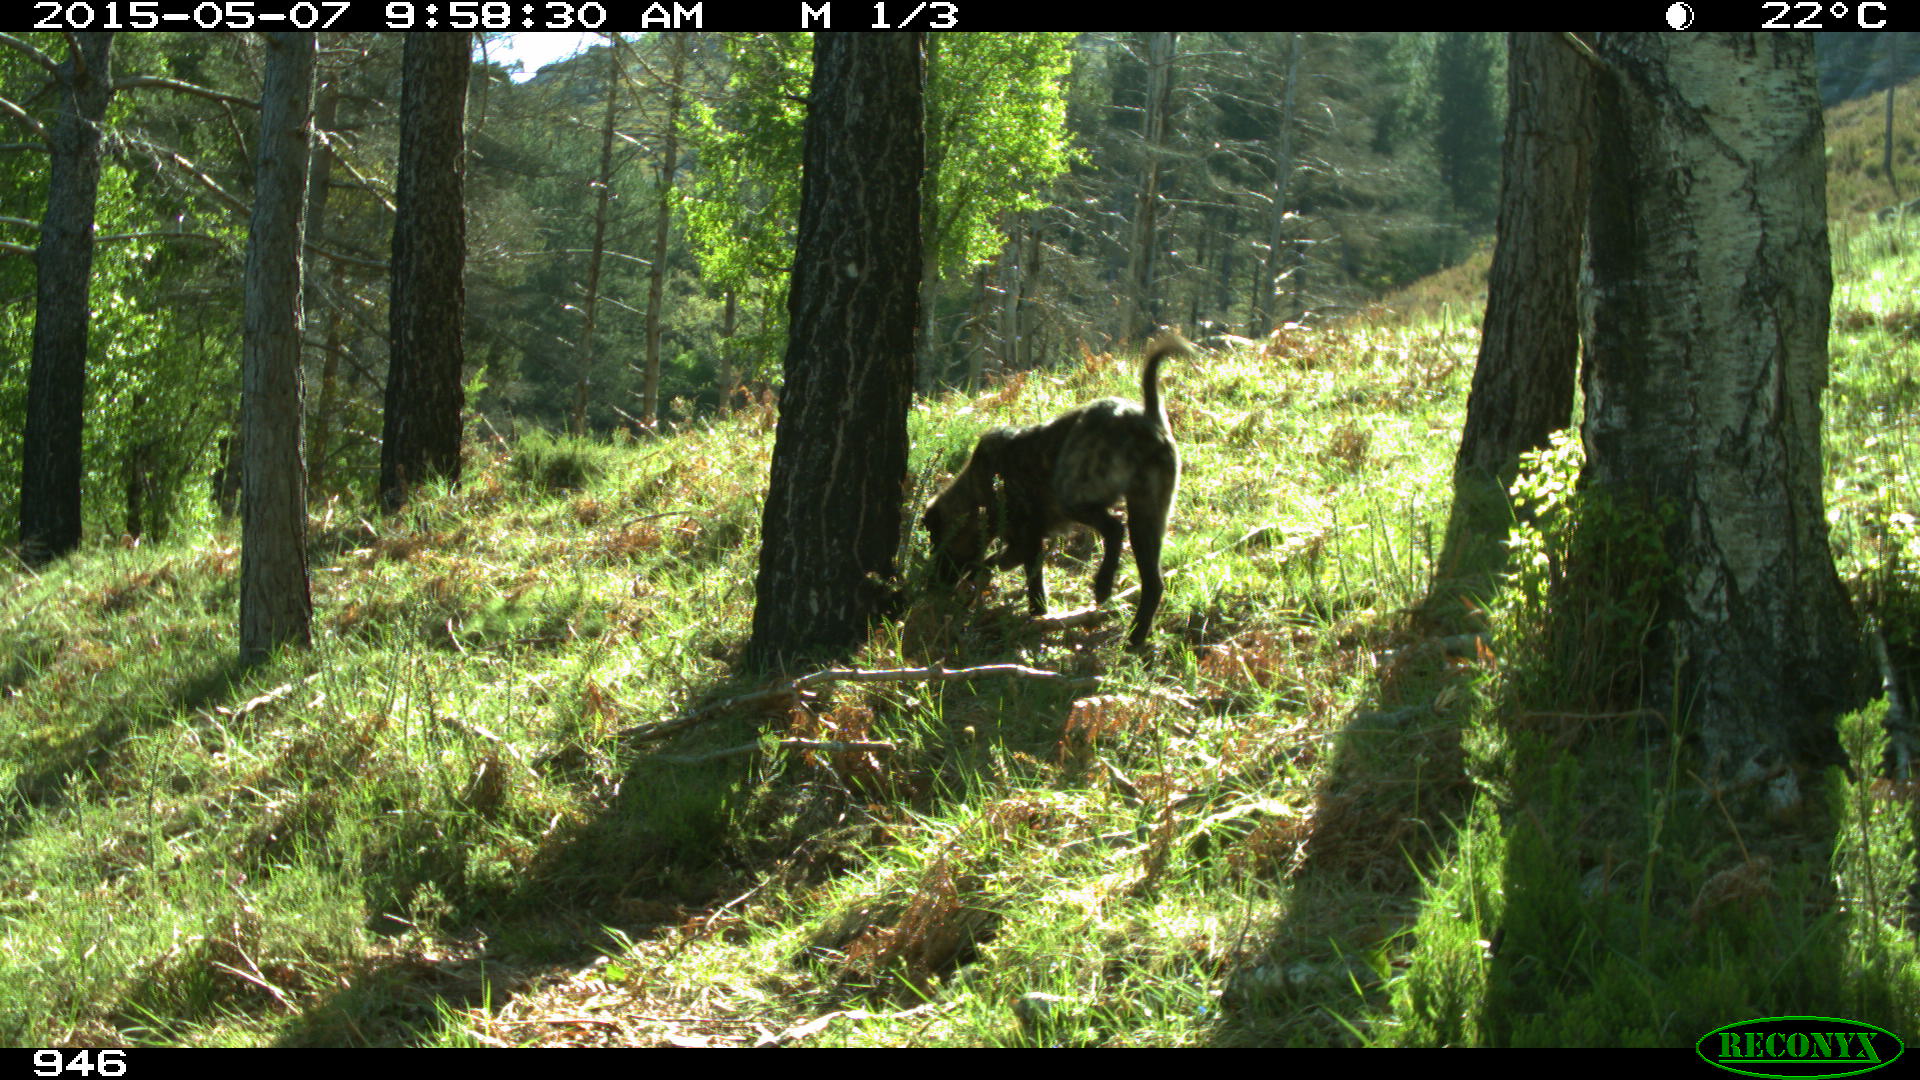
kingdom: Animalia
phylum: Chordata
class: Mammalia
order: Carnivora
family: Canidae
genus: Canis
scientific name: Canis lupus
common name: Gray wolf
